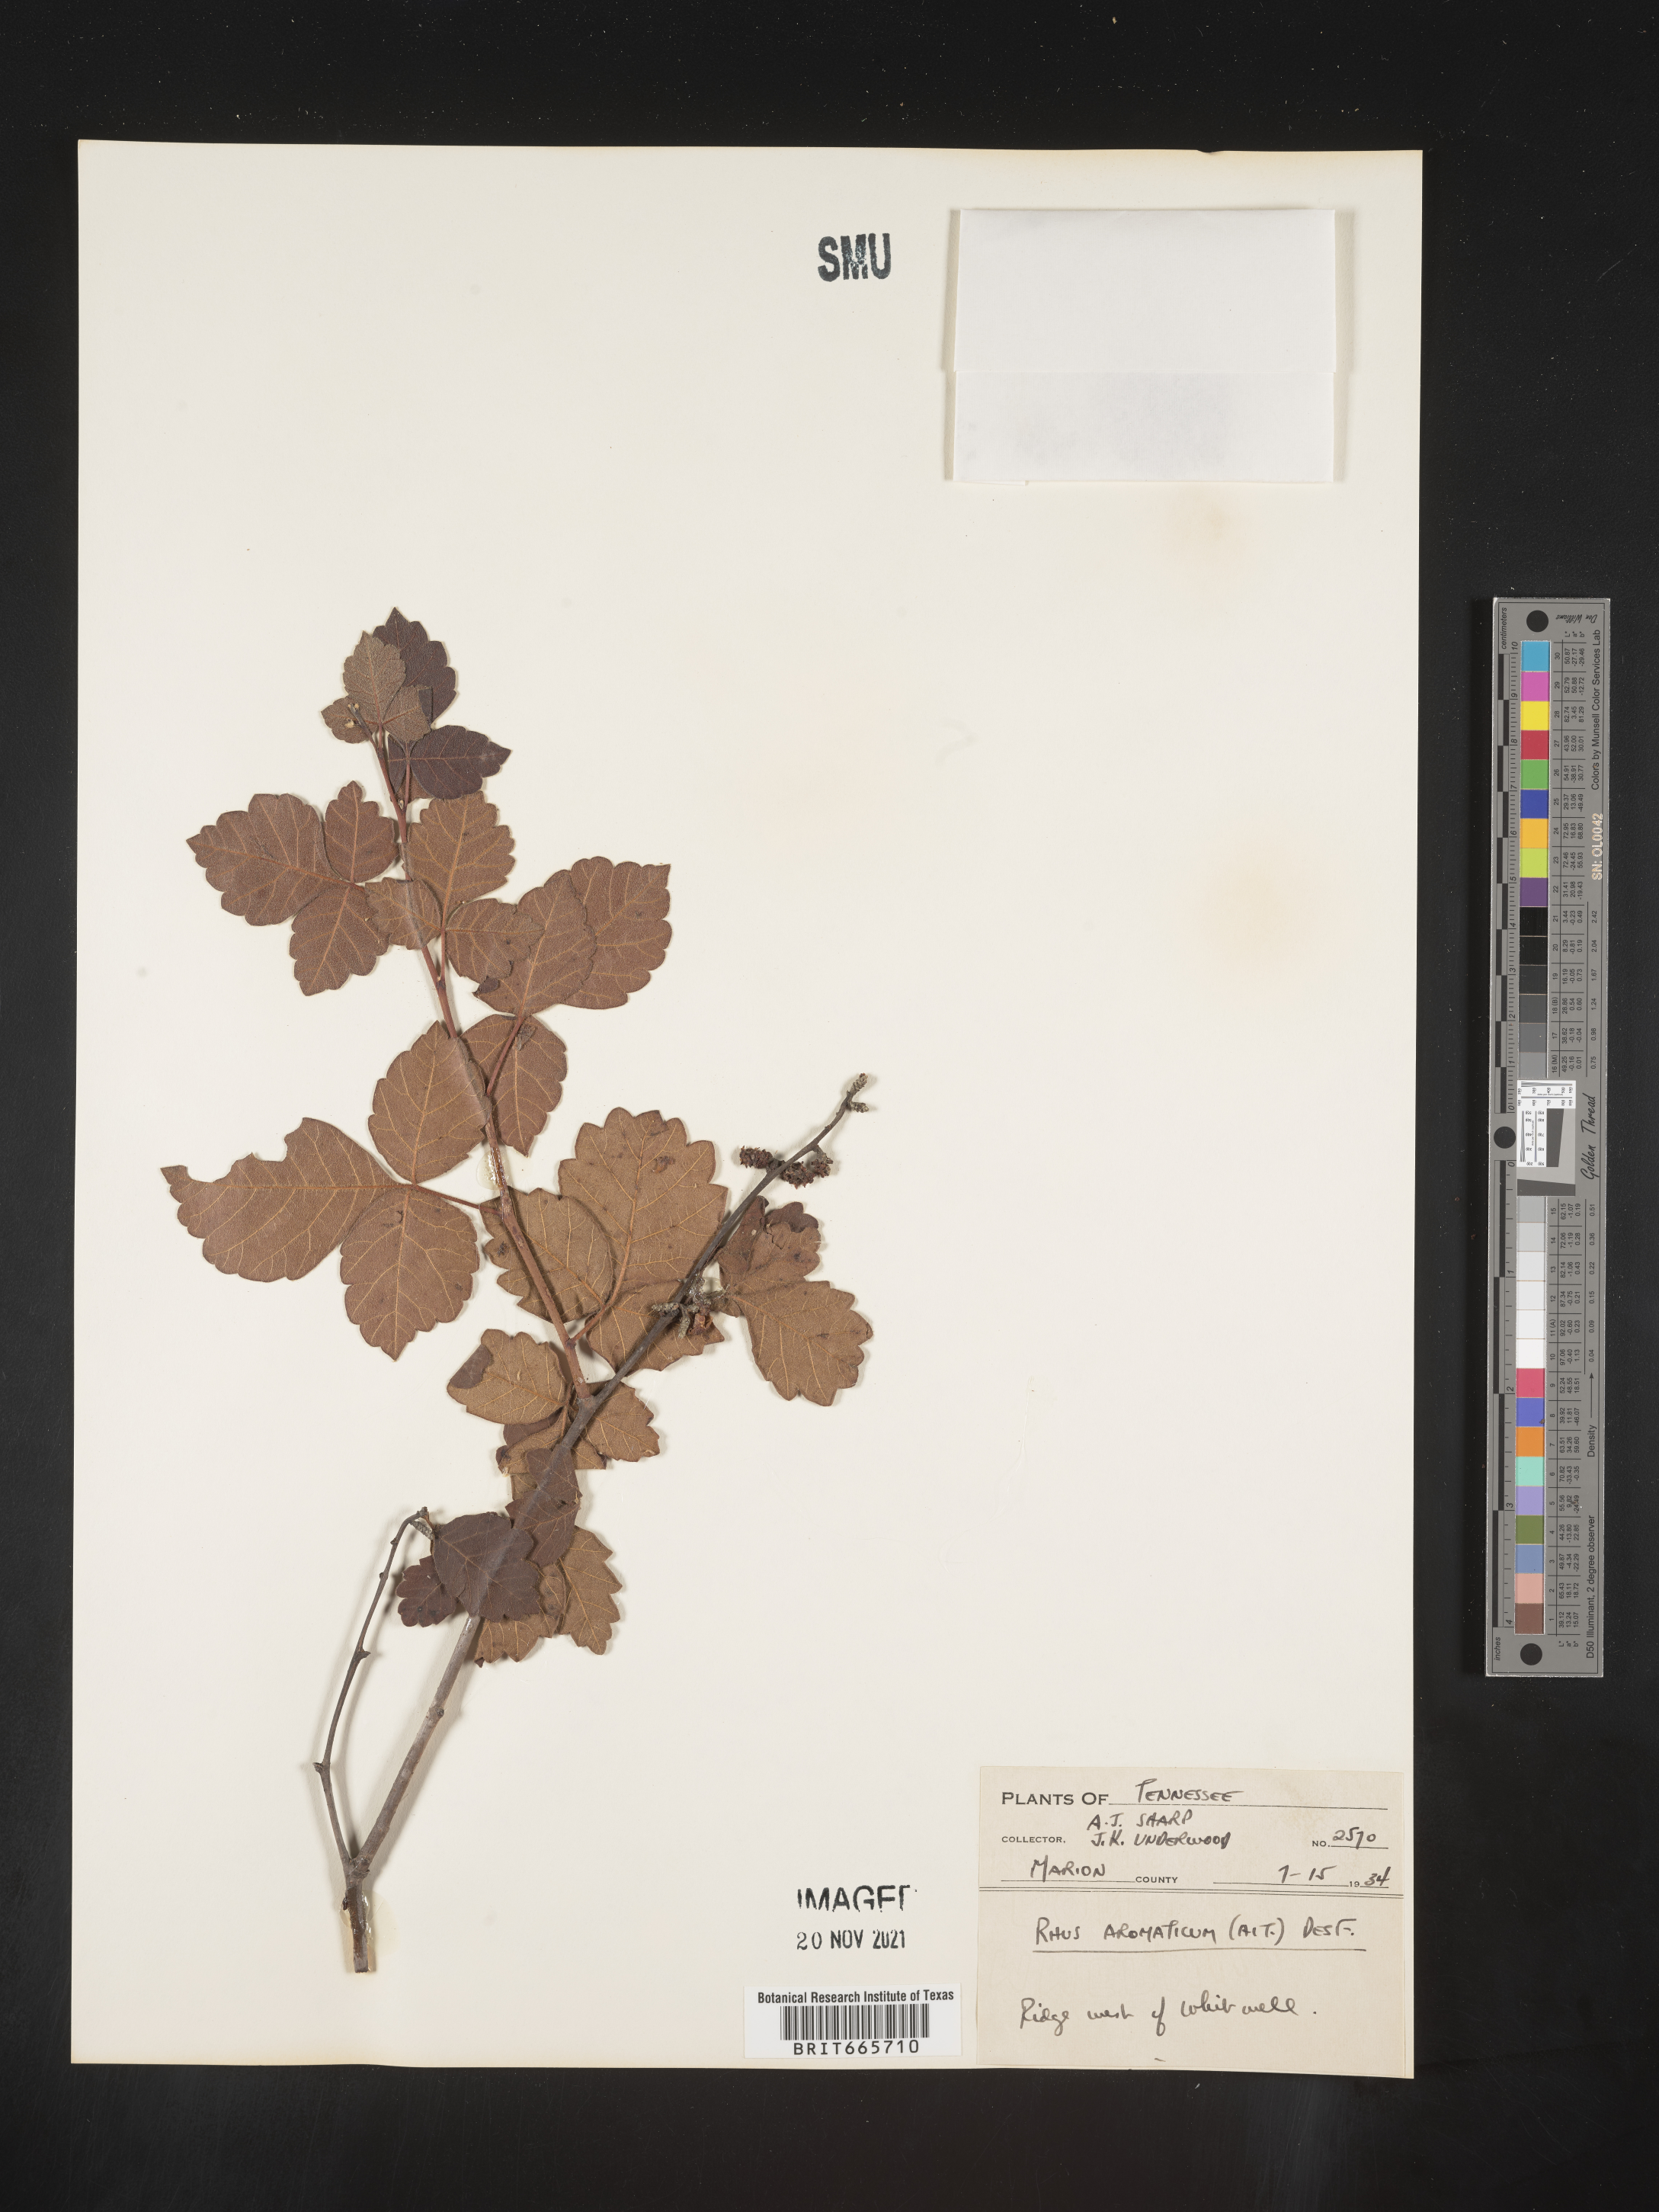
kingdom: Plantae
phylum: Tracheophyta
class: Magnoliopsida
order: Sapindales
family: Anacardiaceae
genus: Rhus
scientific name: Rhus aromatica
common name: Aromatic sumac
